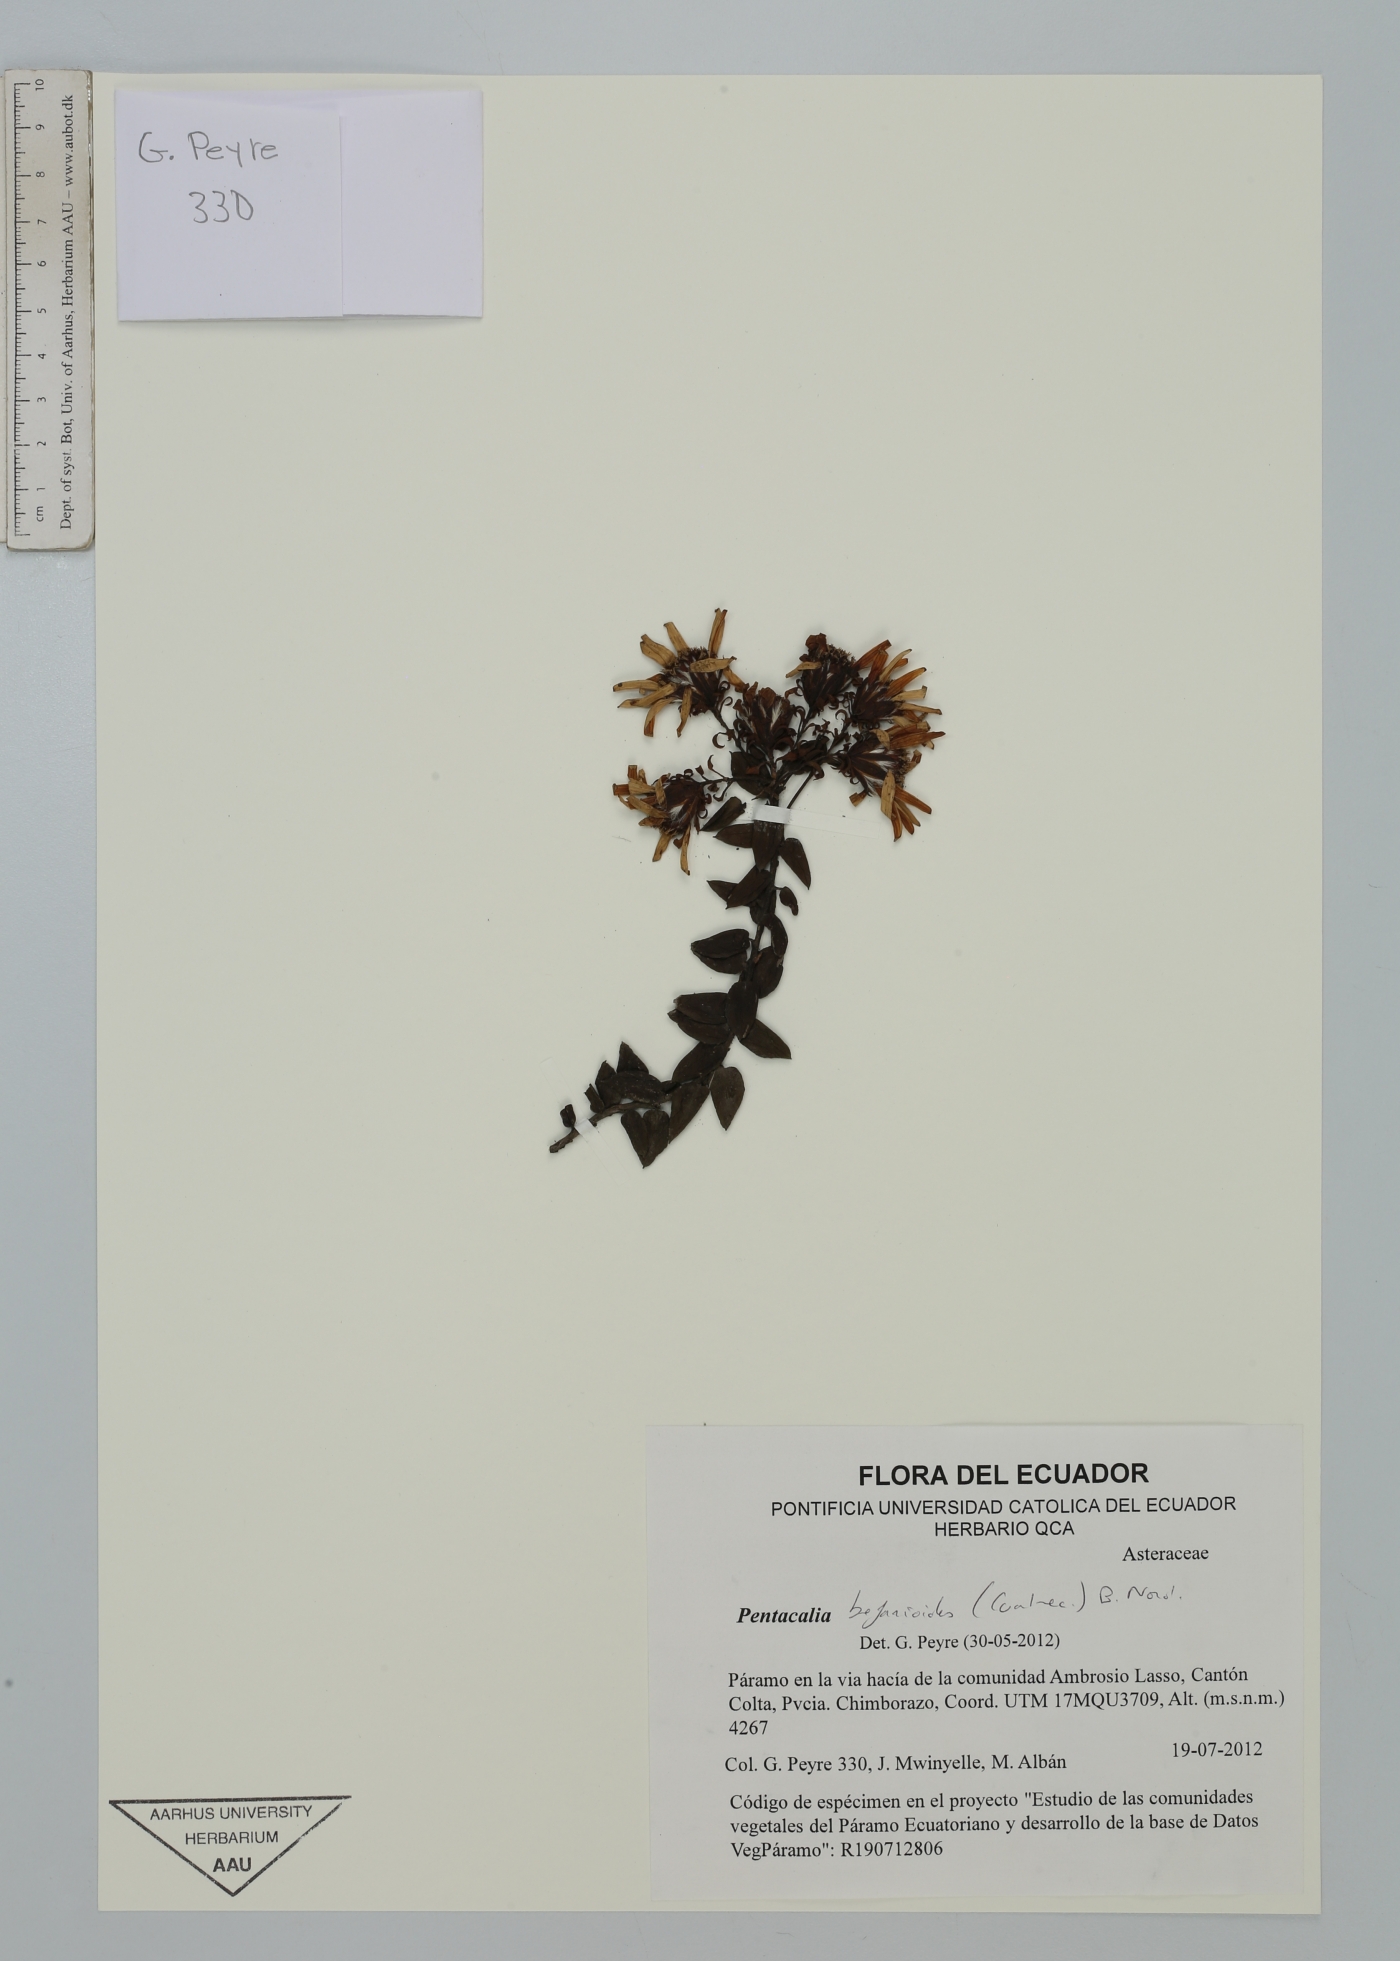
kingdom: Plantae
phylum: Tracheophyta
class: Magnoliopsida
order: Asterales
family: Asteraceae
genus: Monticalia
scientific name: Monticalia befarioides
